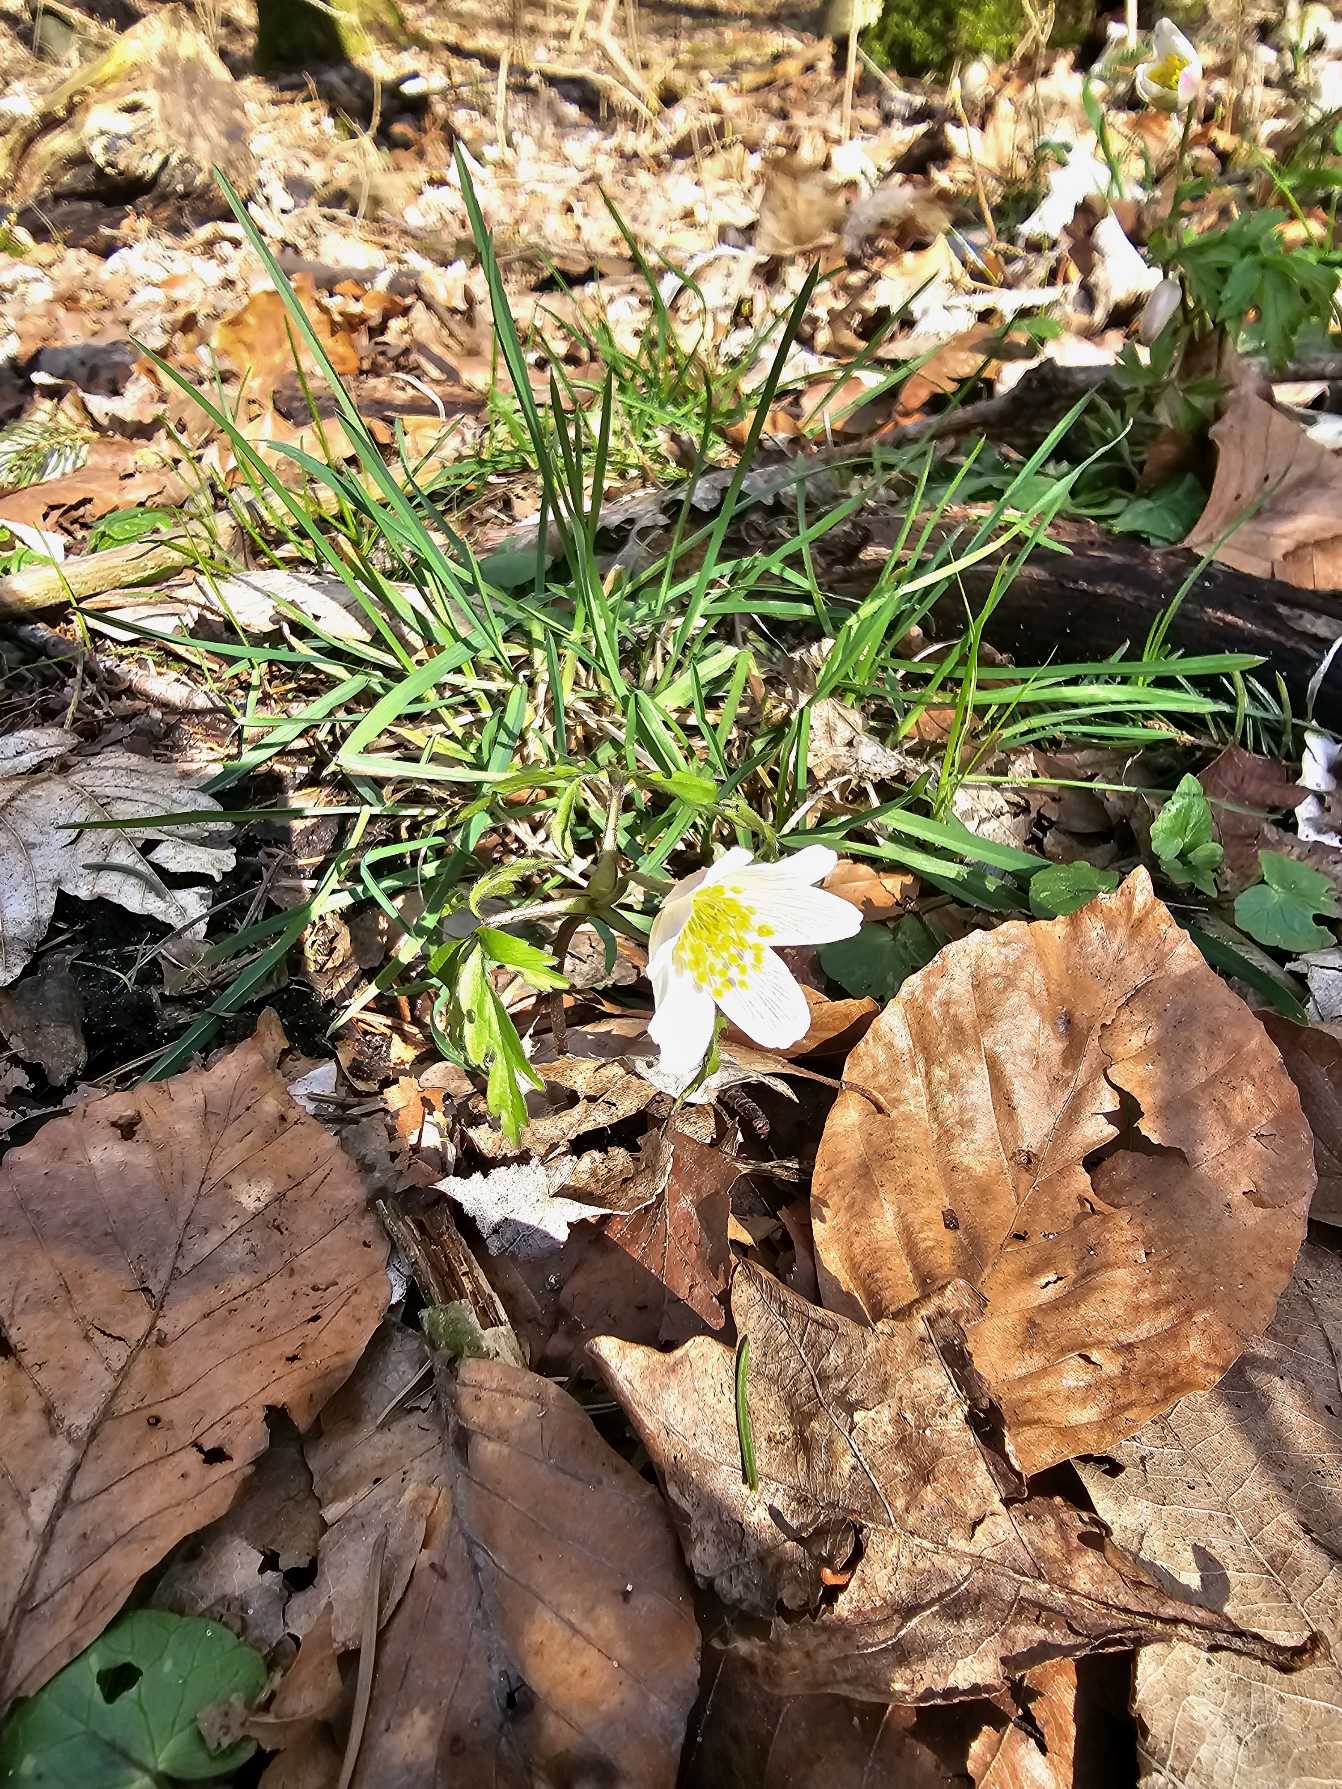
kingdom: Plantae
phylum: Tracheophyta
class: Magnoliopsida
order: Ranunculales
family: Ranunculaceae
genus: Anemone
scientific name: Anemone nemorosa
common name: Hvid anemone
